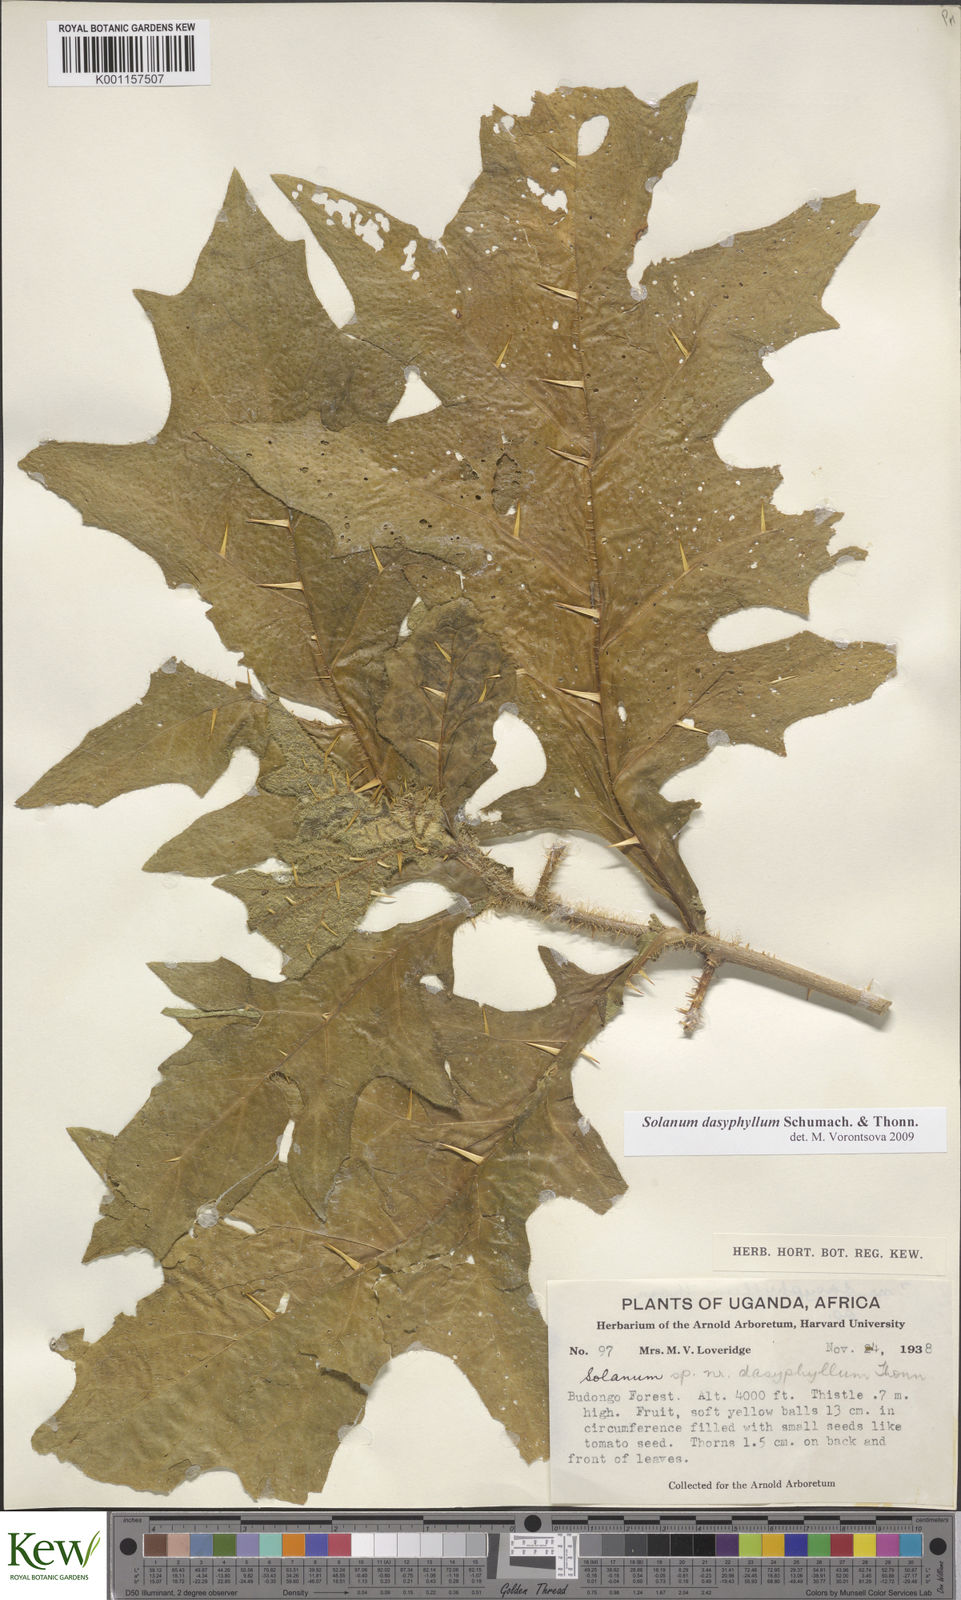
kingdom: Plantae
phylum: Tracheophyta
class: Magnoliopsida
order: Solanales
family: Solanaceae
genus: Solanum
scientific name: Solanum dasyphyllum
